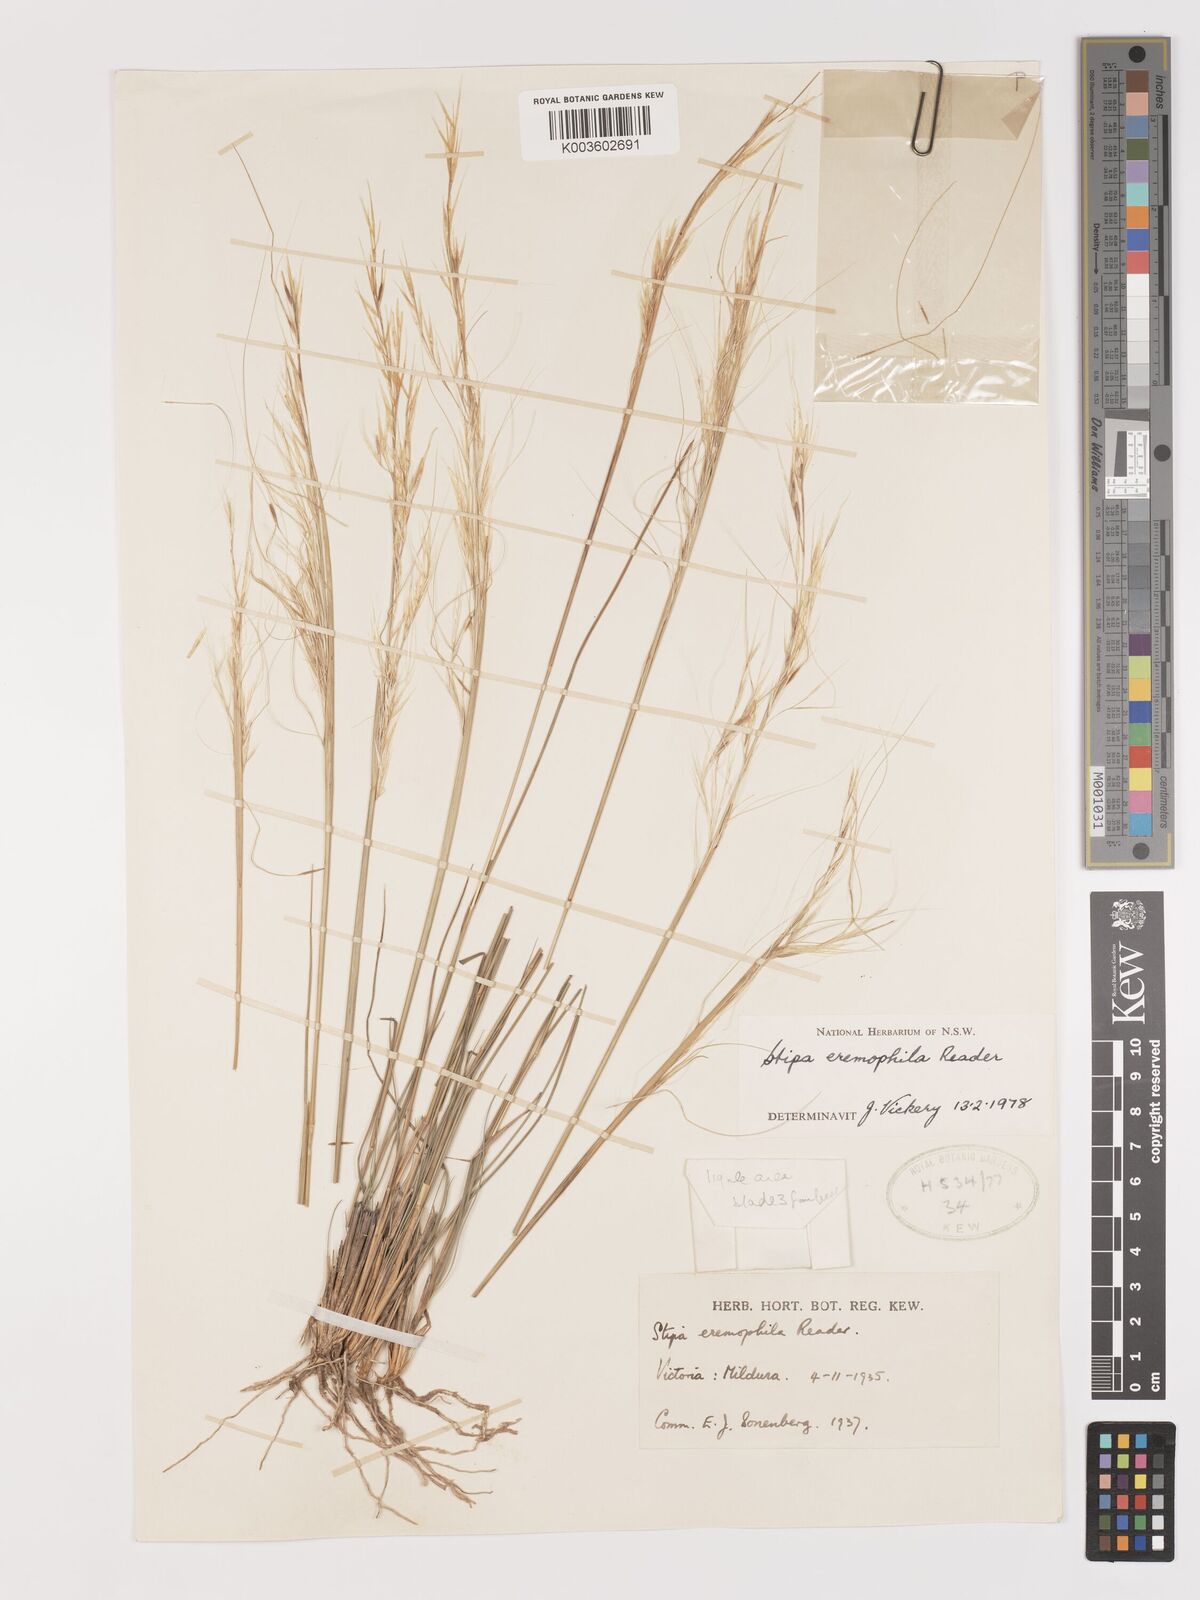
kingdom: Plantae
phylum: Tracheophyta
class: Liliopsida
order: Poales
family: Poaceae
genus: Austrostipa
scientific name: Austrostipa eremophila
